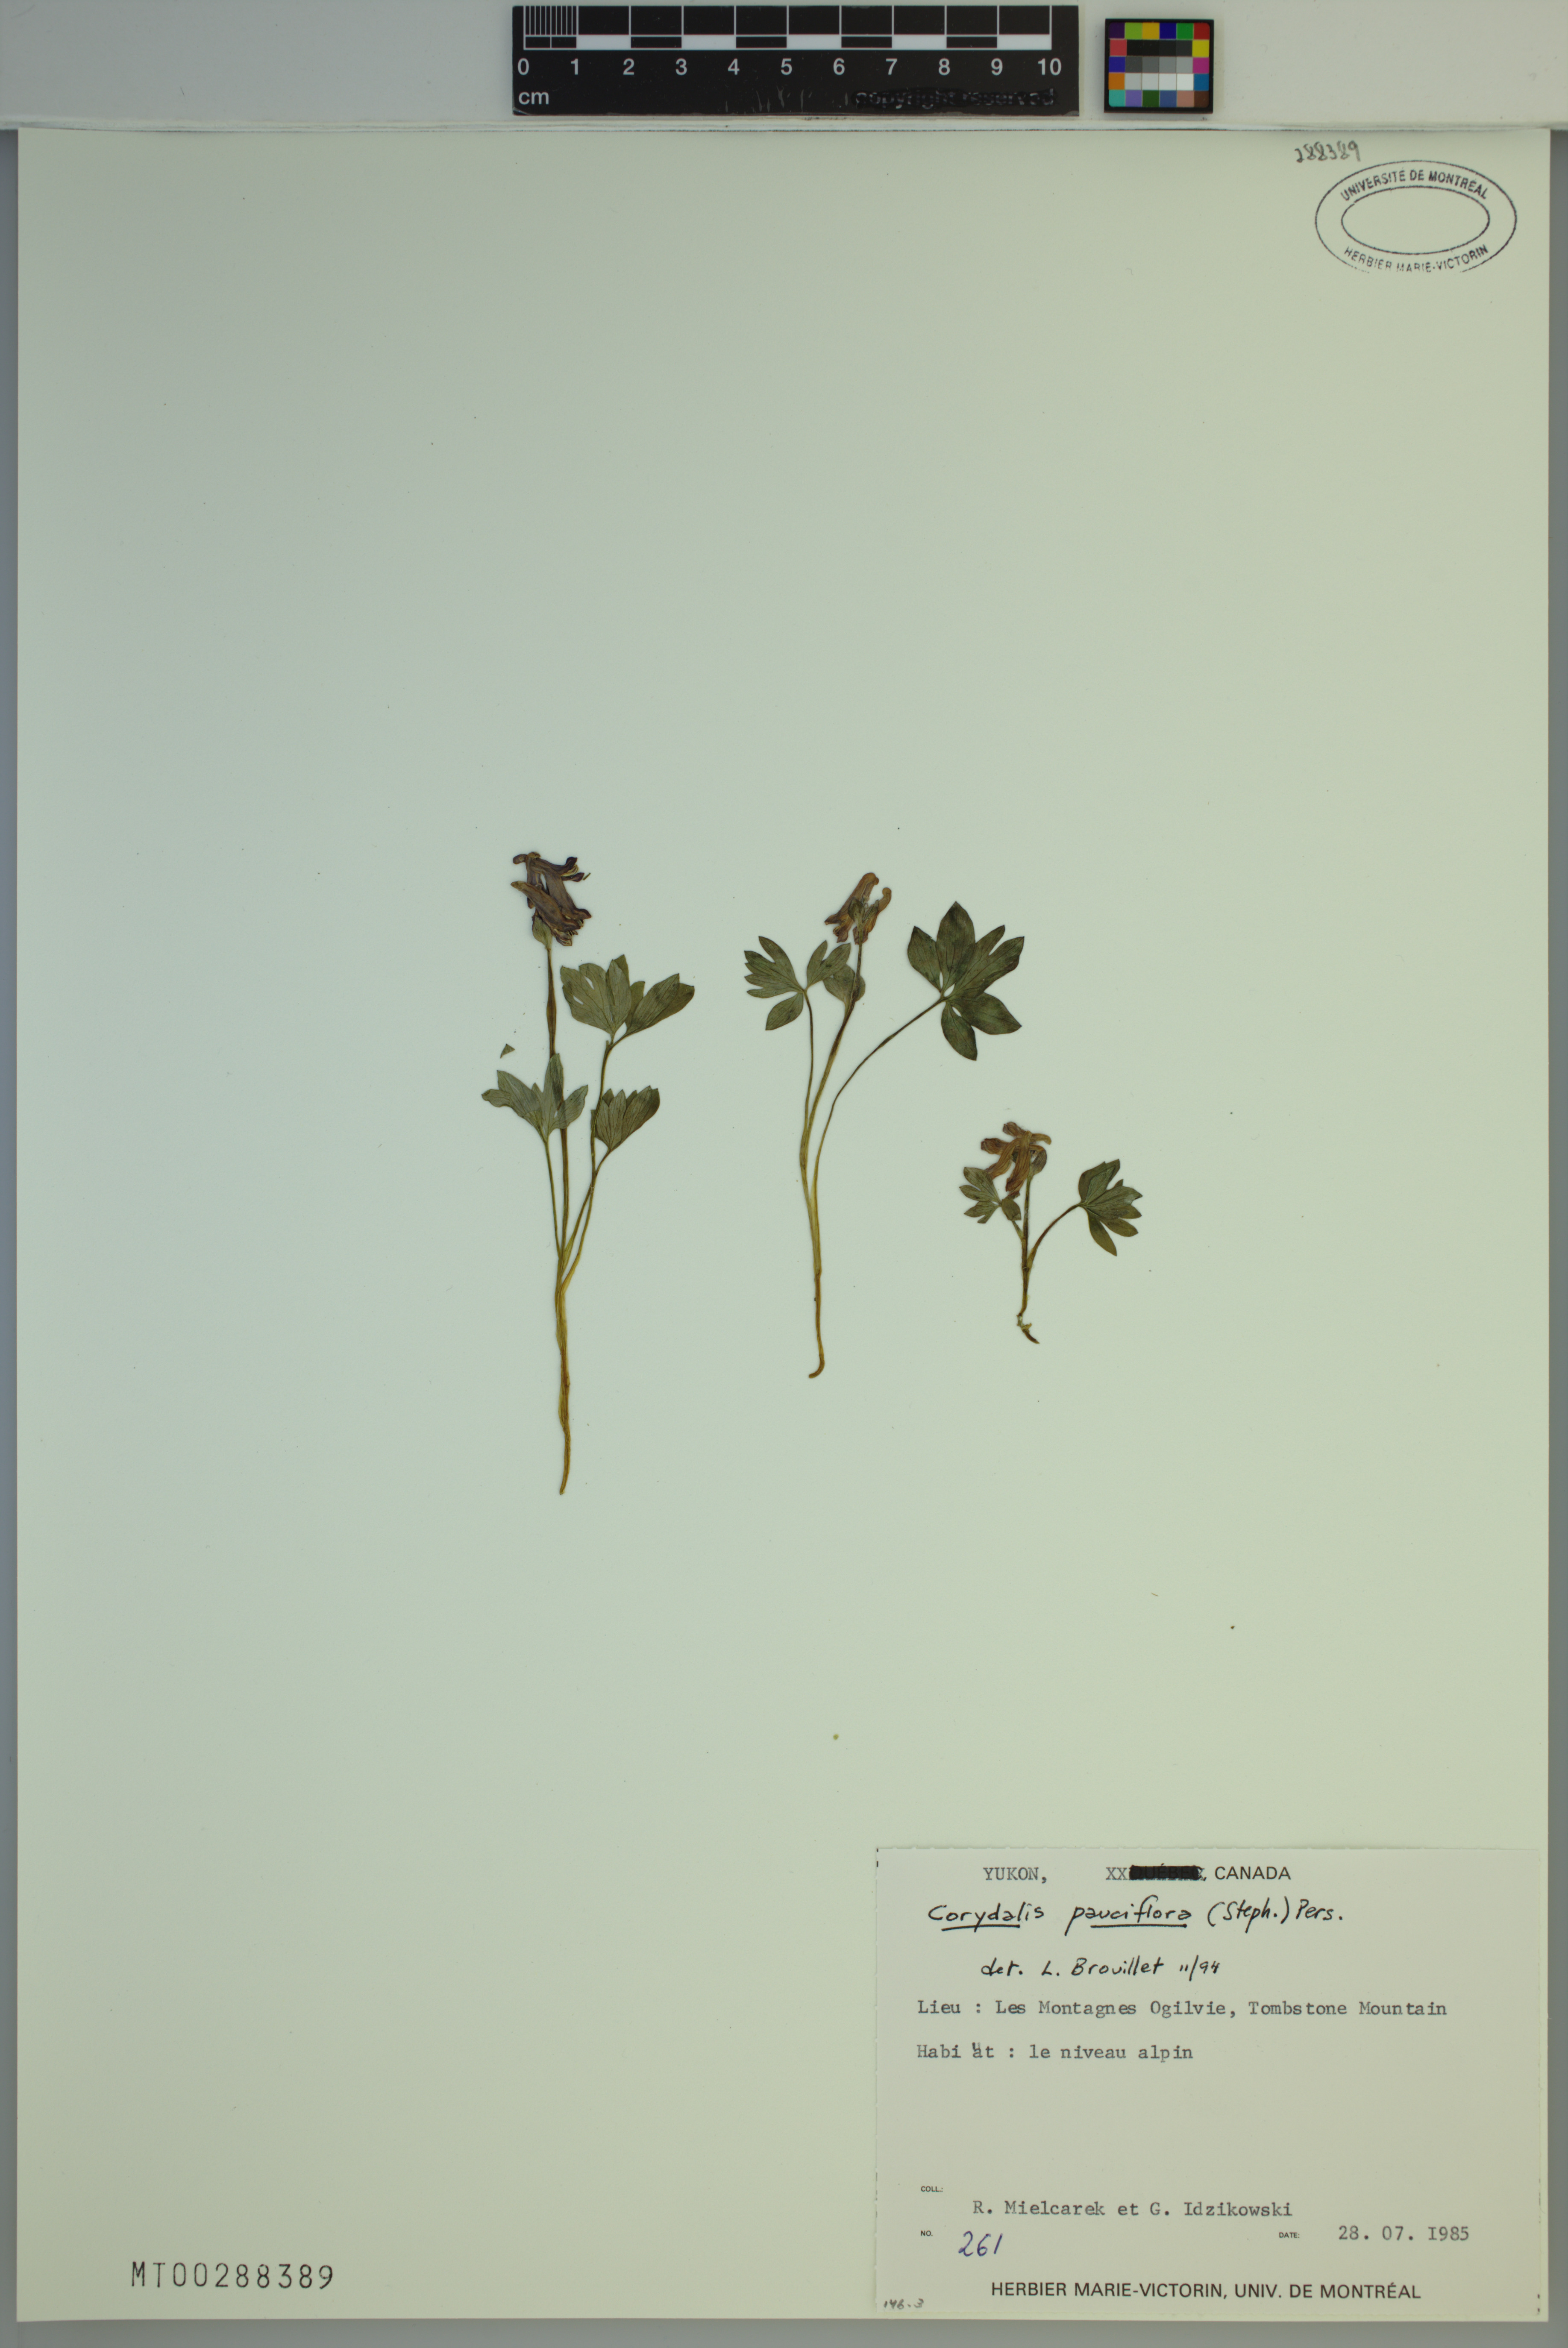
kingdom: Plantae
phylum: Tracheophyta
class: Magnoliopsida
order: Ranunculales
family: Papaveraceae
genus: Corydalis
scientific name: Corydalis pauciflora
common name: Blue corydalis
